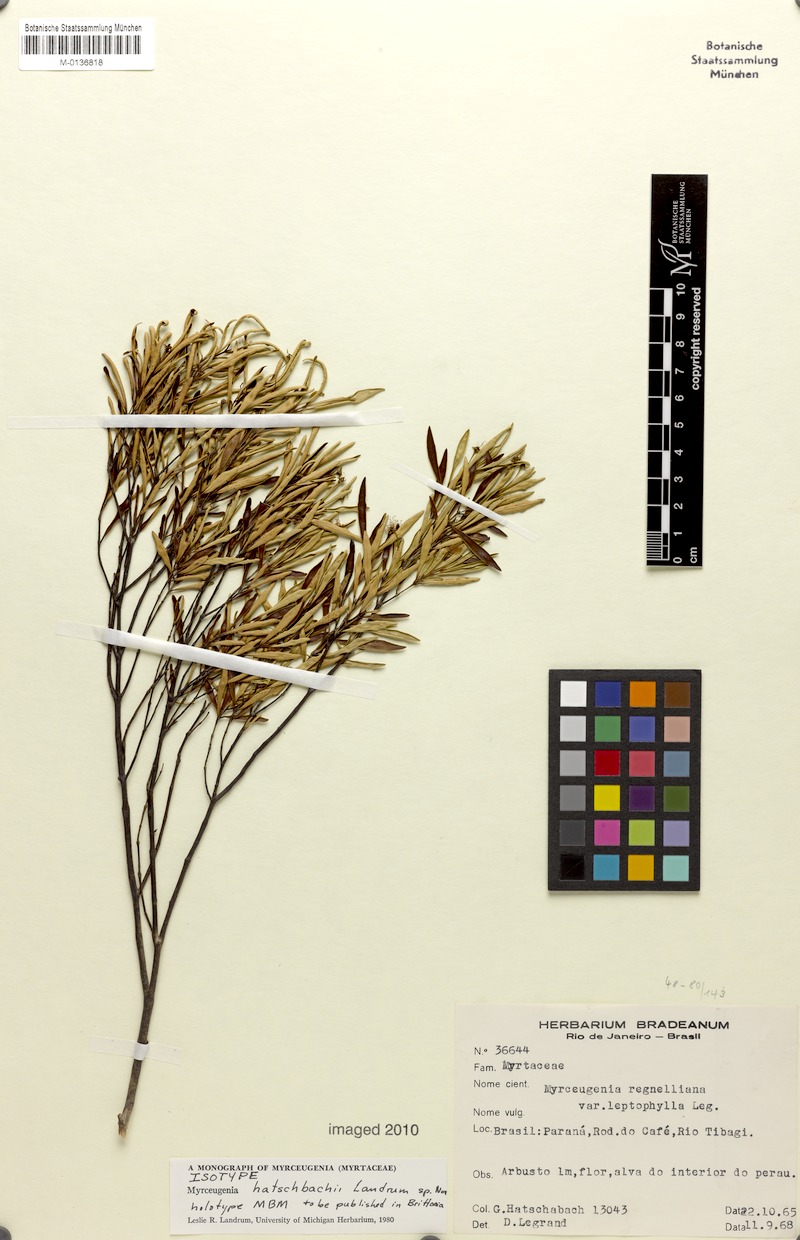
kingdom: Plantae
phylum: Tracheophyta
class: Magnoliopsida
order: Myrtales
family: Myrtaceae
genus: Myrceugenia
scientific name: Myrceugenia hatschbachii
